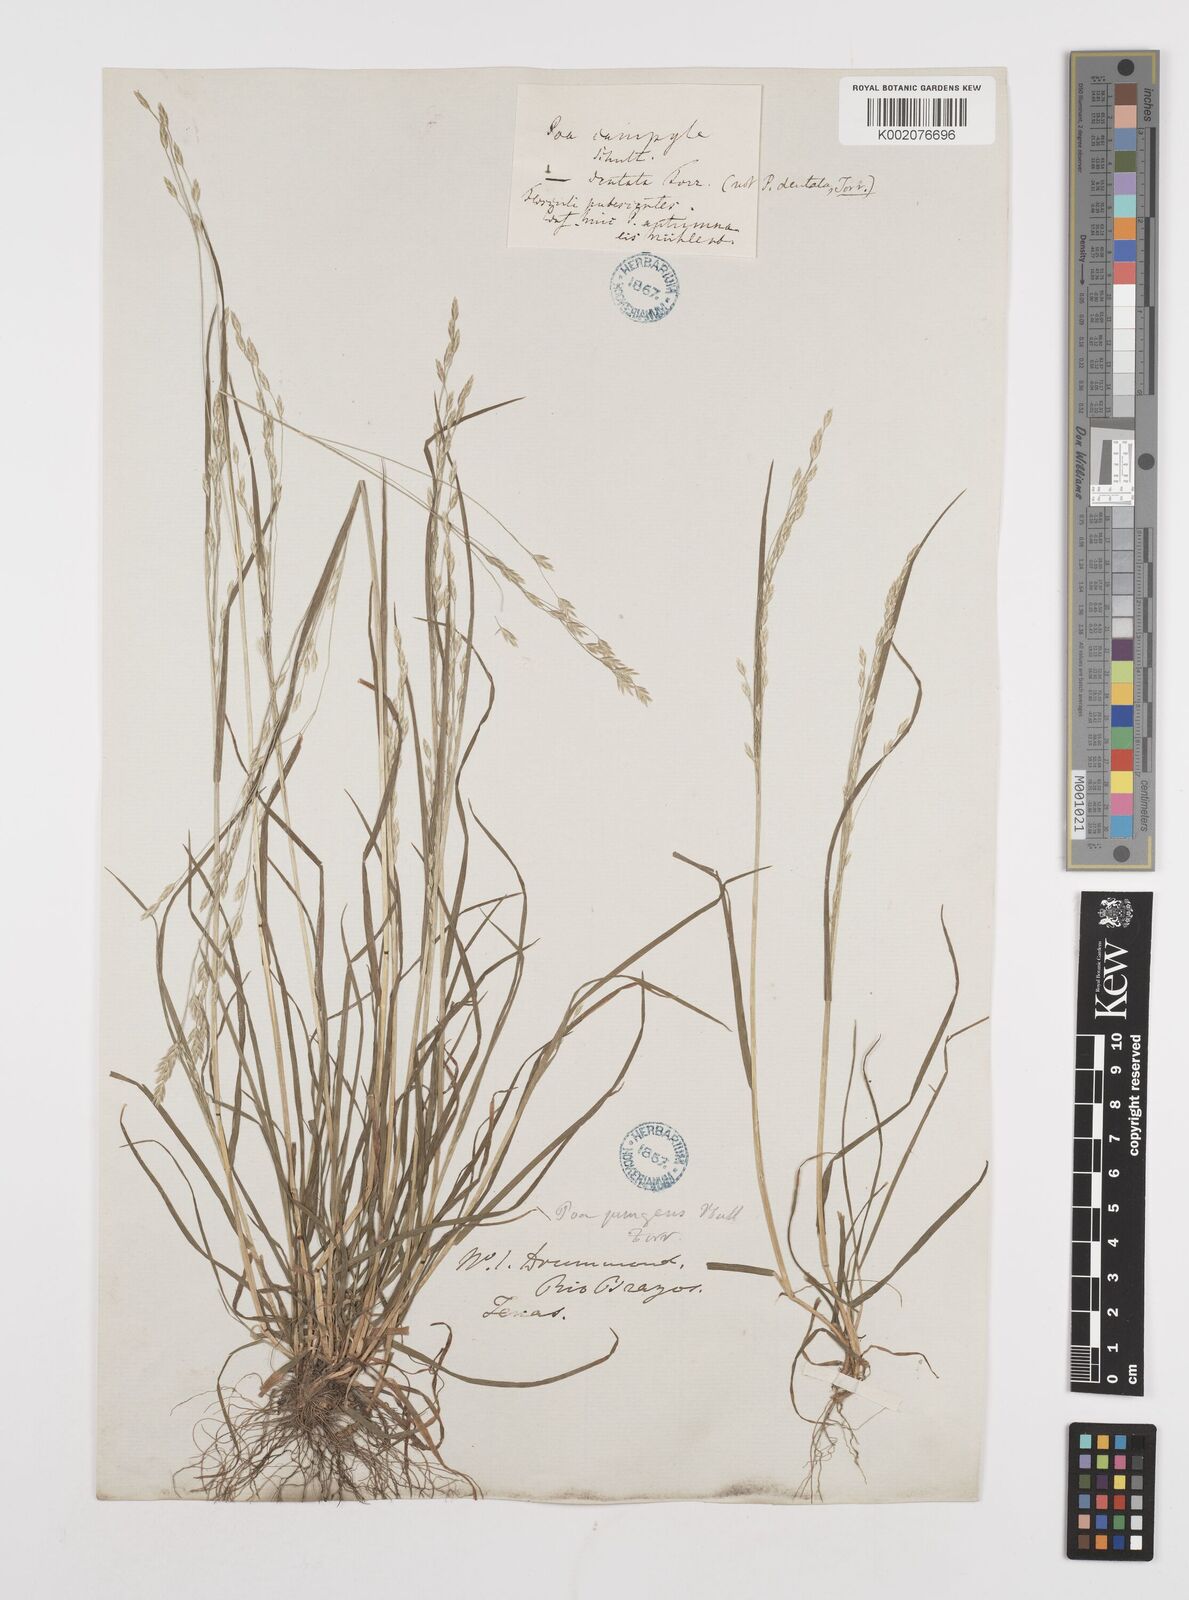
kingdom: Plantae
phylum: Tracheophyta
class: Liliopsida
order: Poales
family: Poaceae
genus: Poa
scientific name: Poa
